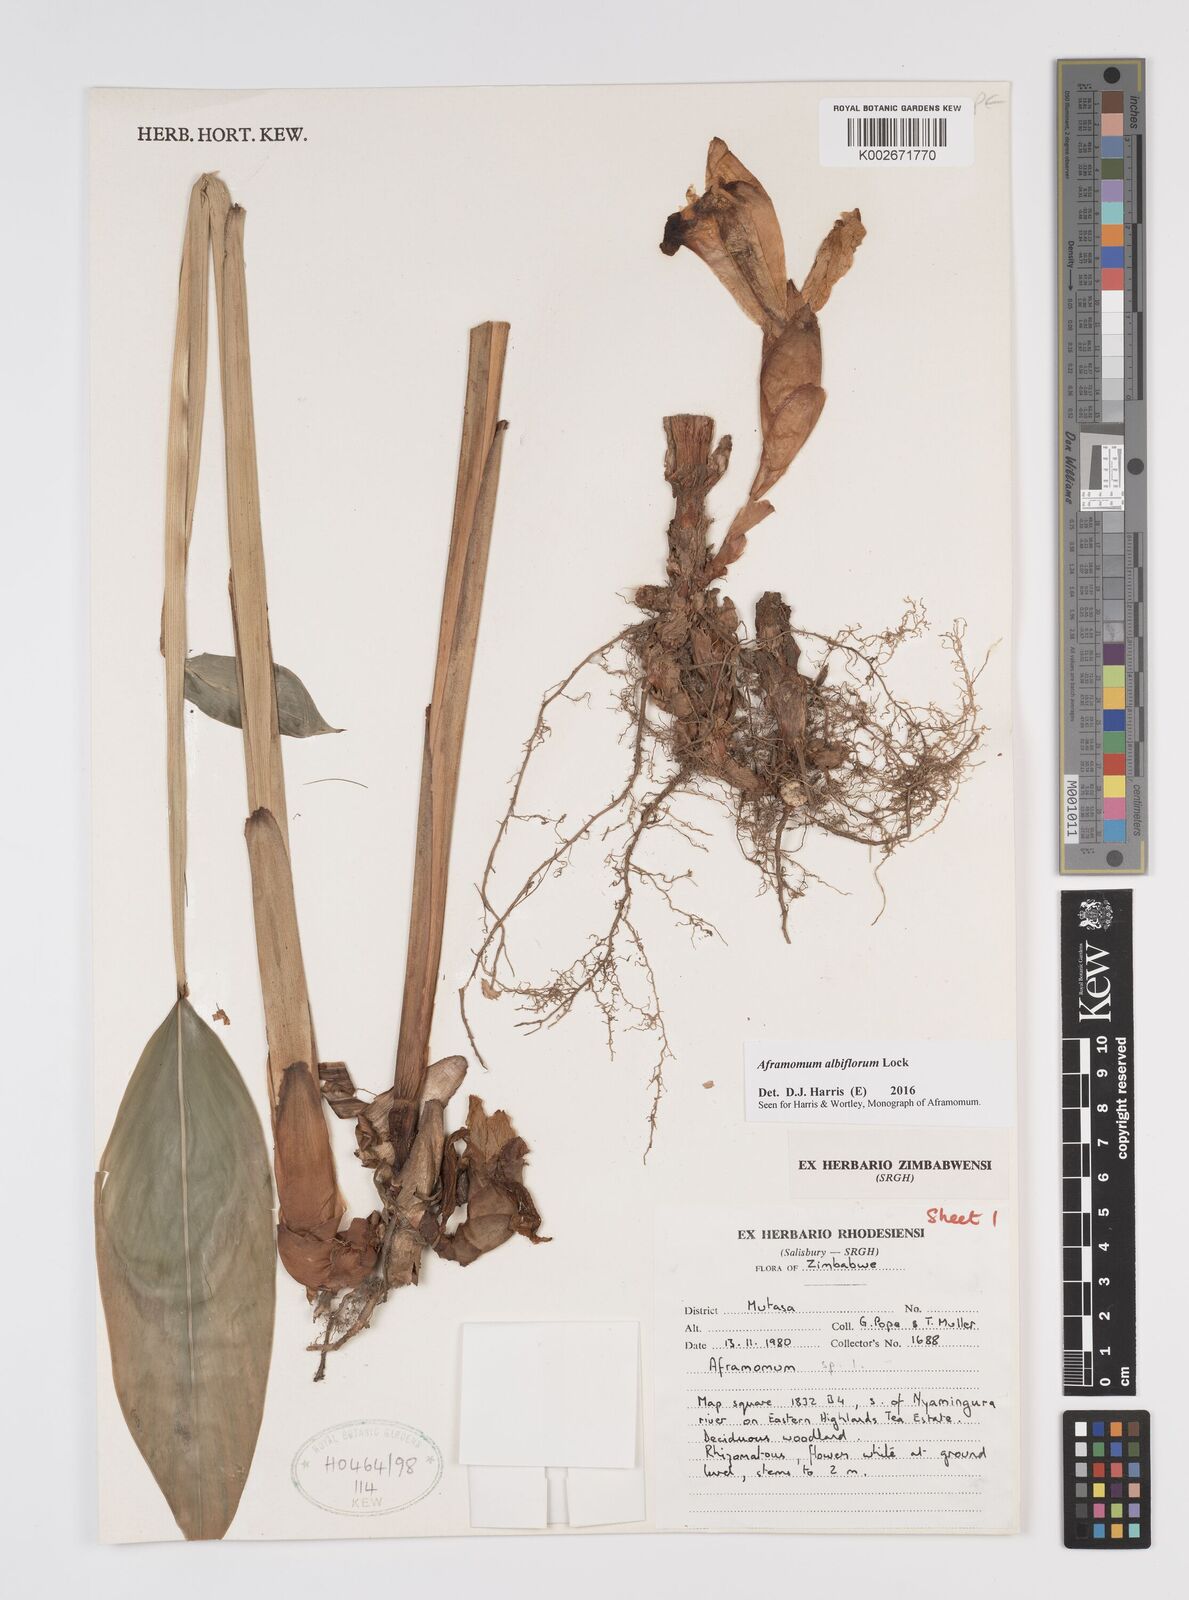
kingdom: Plantae
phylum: Tracheophyta
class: Liliopsida
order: Zingiberales
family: Zingiberaceae
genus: Aframomum
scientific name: Aframomum albiflorum
